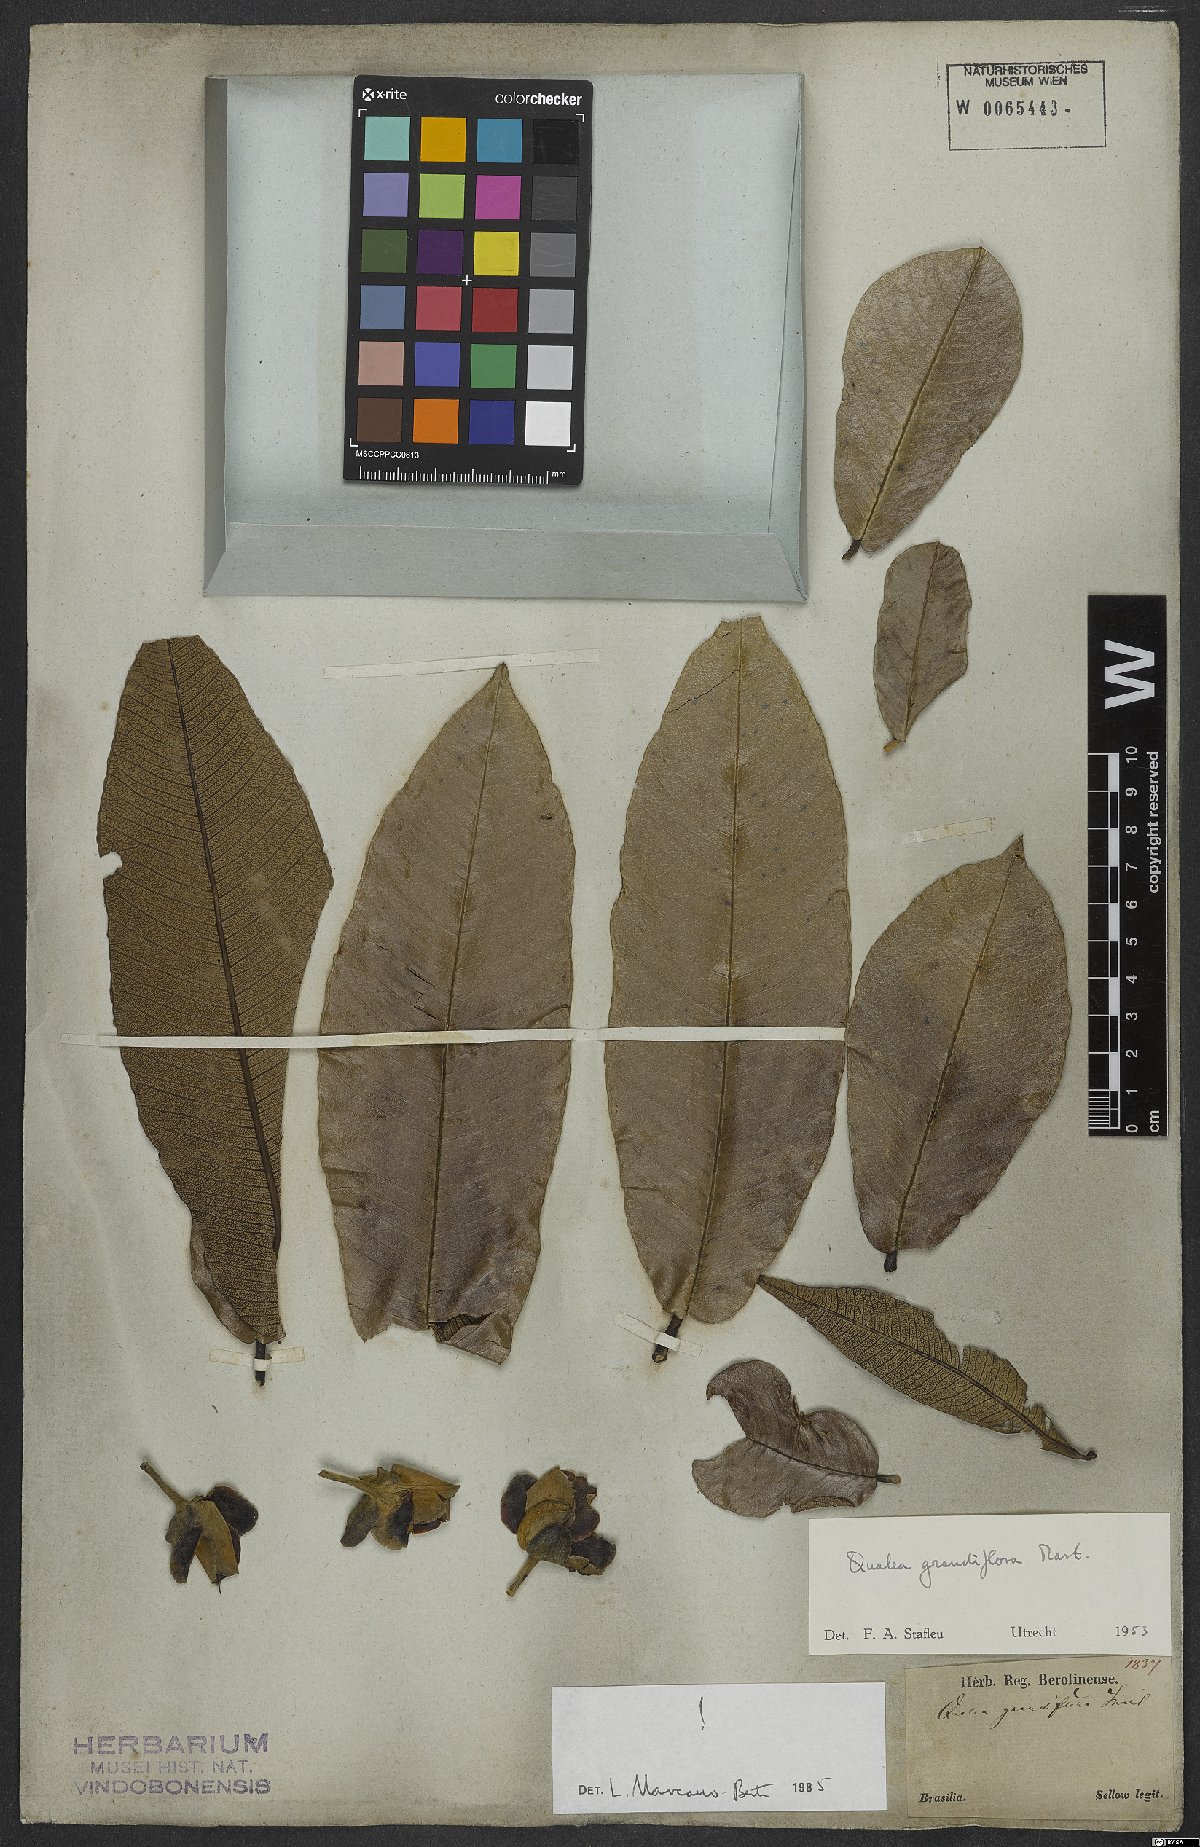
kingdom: Plantae
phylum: Tracheophyta
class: Magnoliopsida
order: Myrtales
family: Vochysiaceae
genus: Qualea
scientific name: Qualea grandiflora
